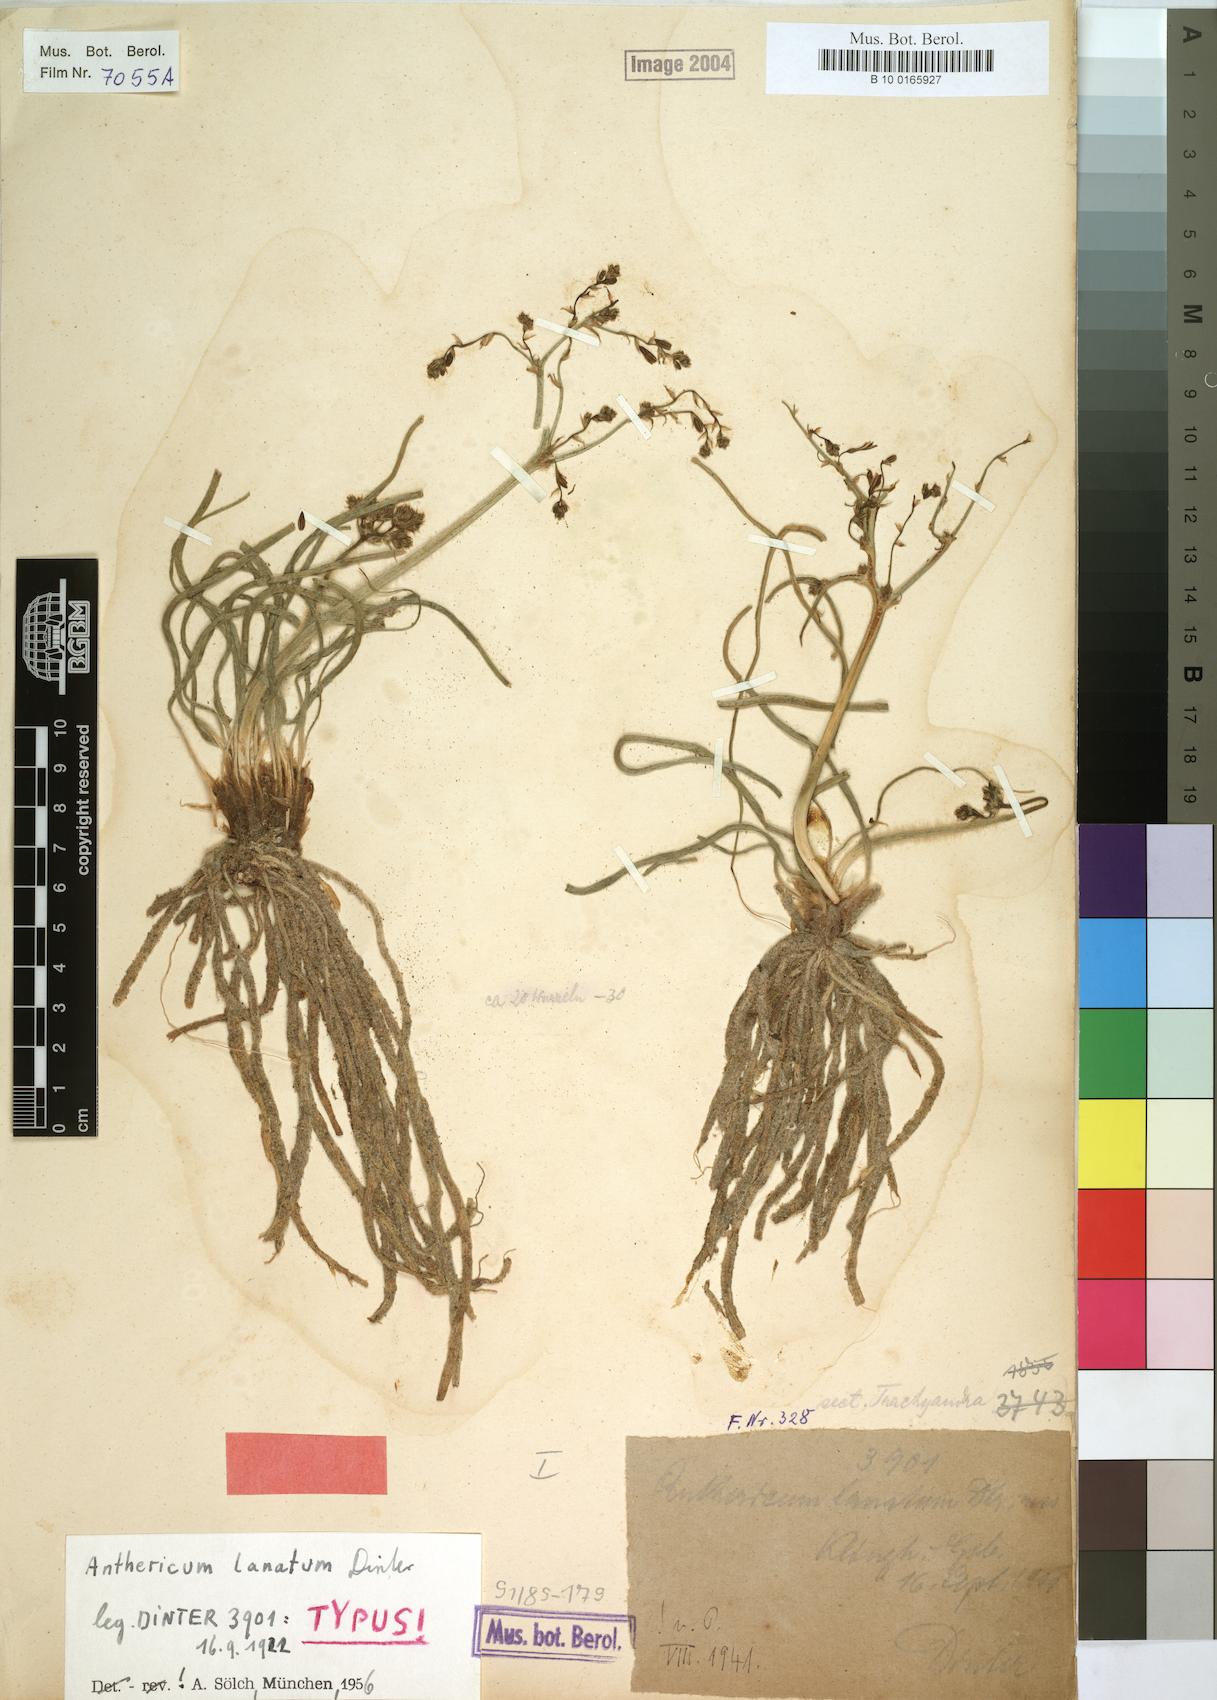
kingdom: Plantae
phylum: Tracheophyta
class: Liliopsida
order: Asparagales
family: Asphodelaceae
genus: Trachyandra
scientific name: Trachyandra lanata
